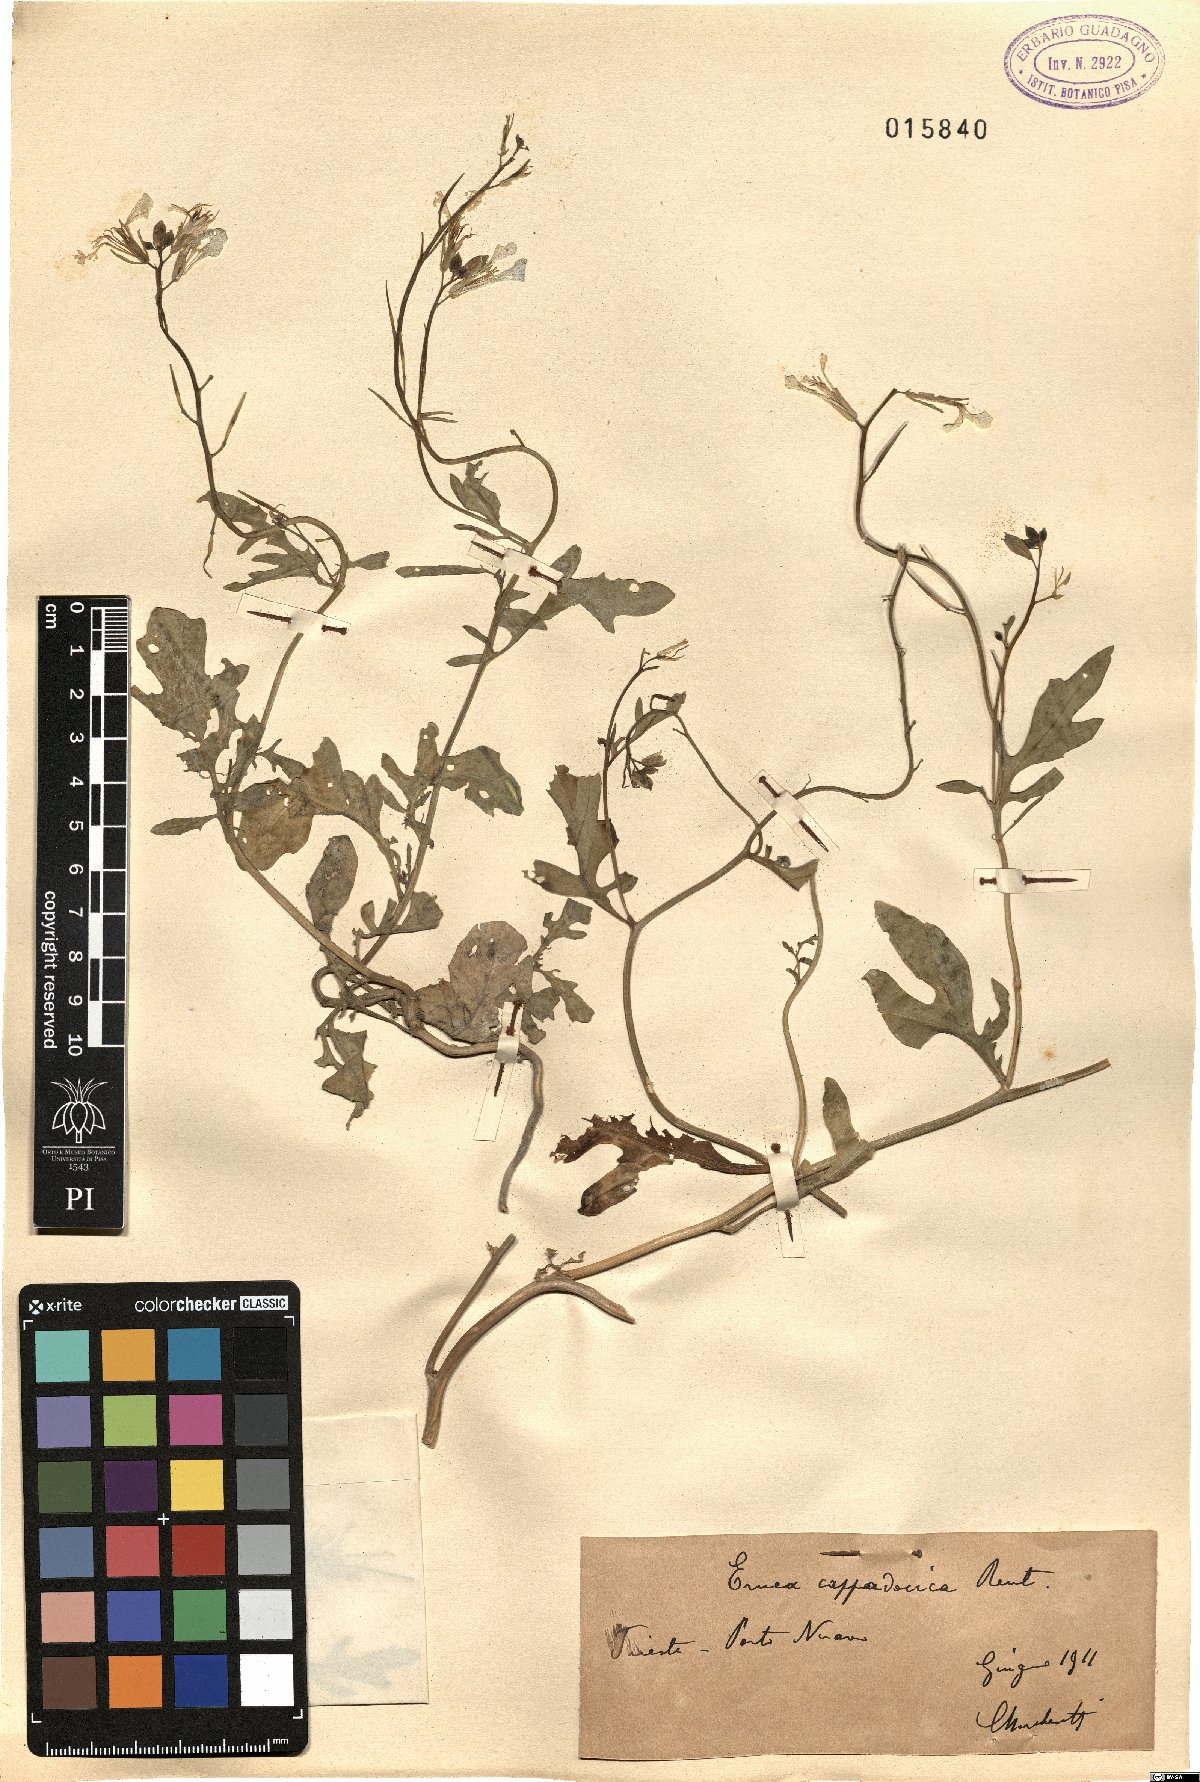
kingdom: Plantae
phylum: Tracheophyta
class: Magnoliopsida
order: Brassicales
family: Brassicaceae
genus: Eruca
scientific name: Eruca vesicaria
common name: Garden rocket
